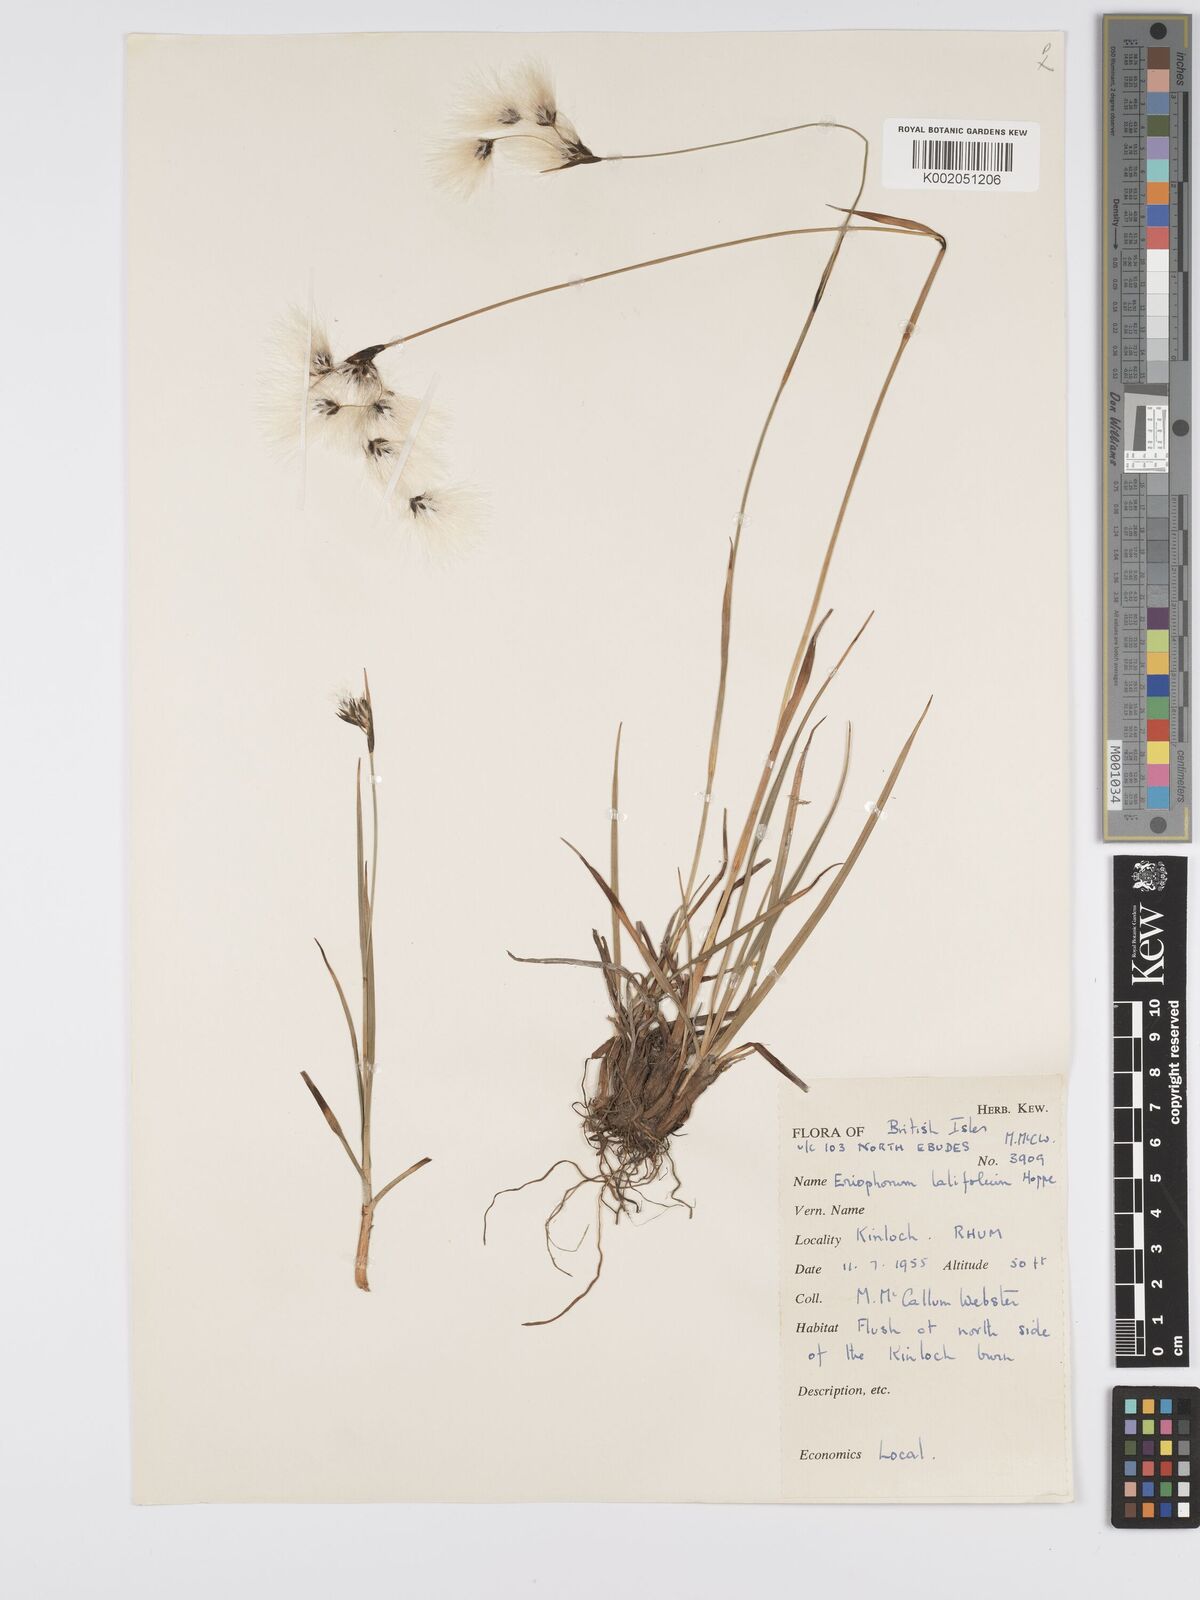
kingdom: Plantae
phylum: Tracheophyta
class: Liliopsida
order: Poales
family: Cyperaceae
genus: Eriophorum
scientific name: Eriophorum latifolium
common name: Broad-leaved cottongrass
